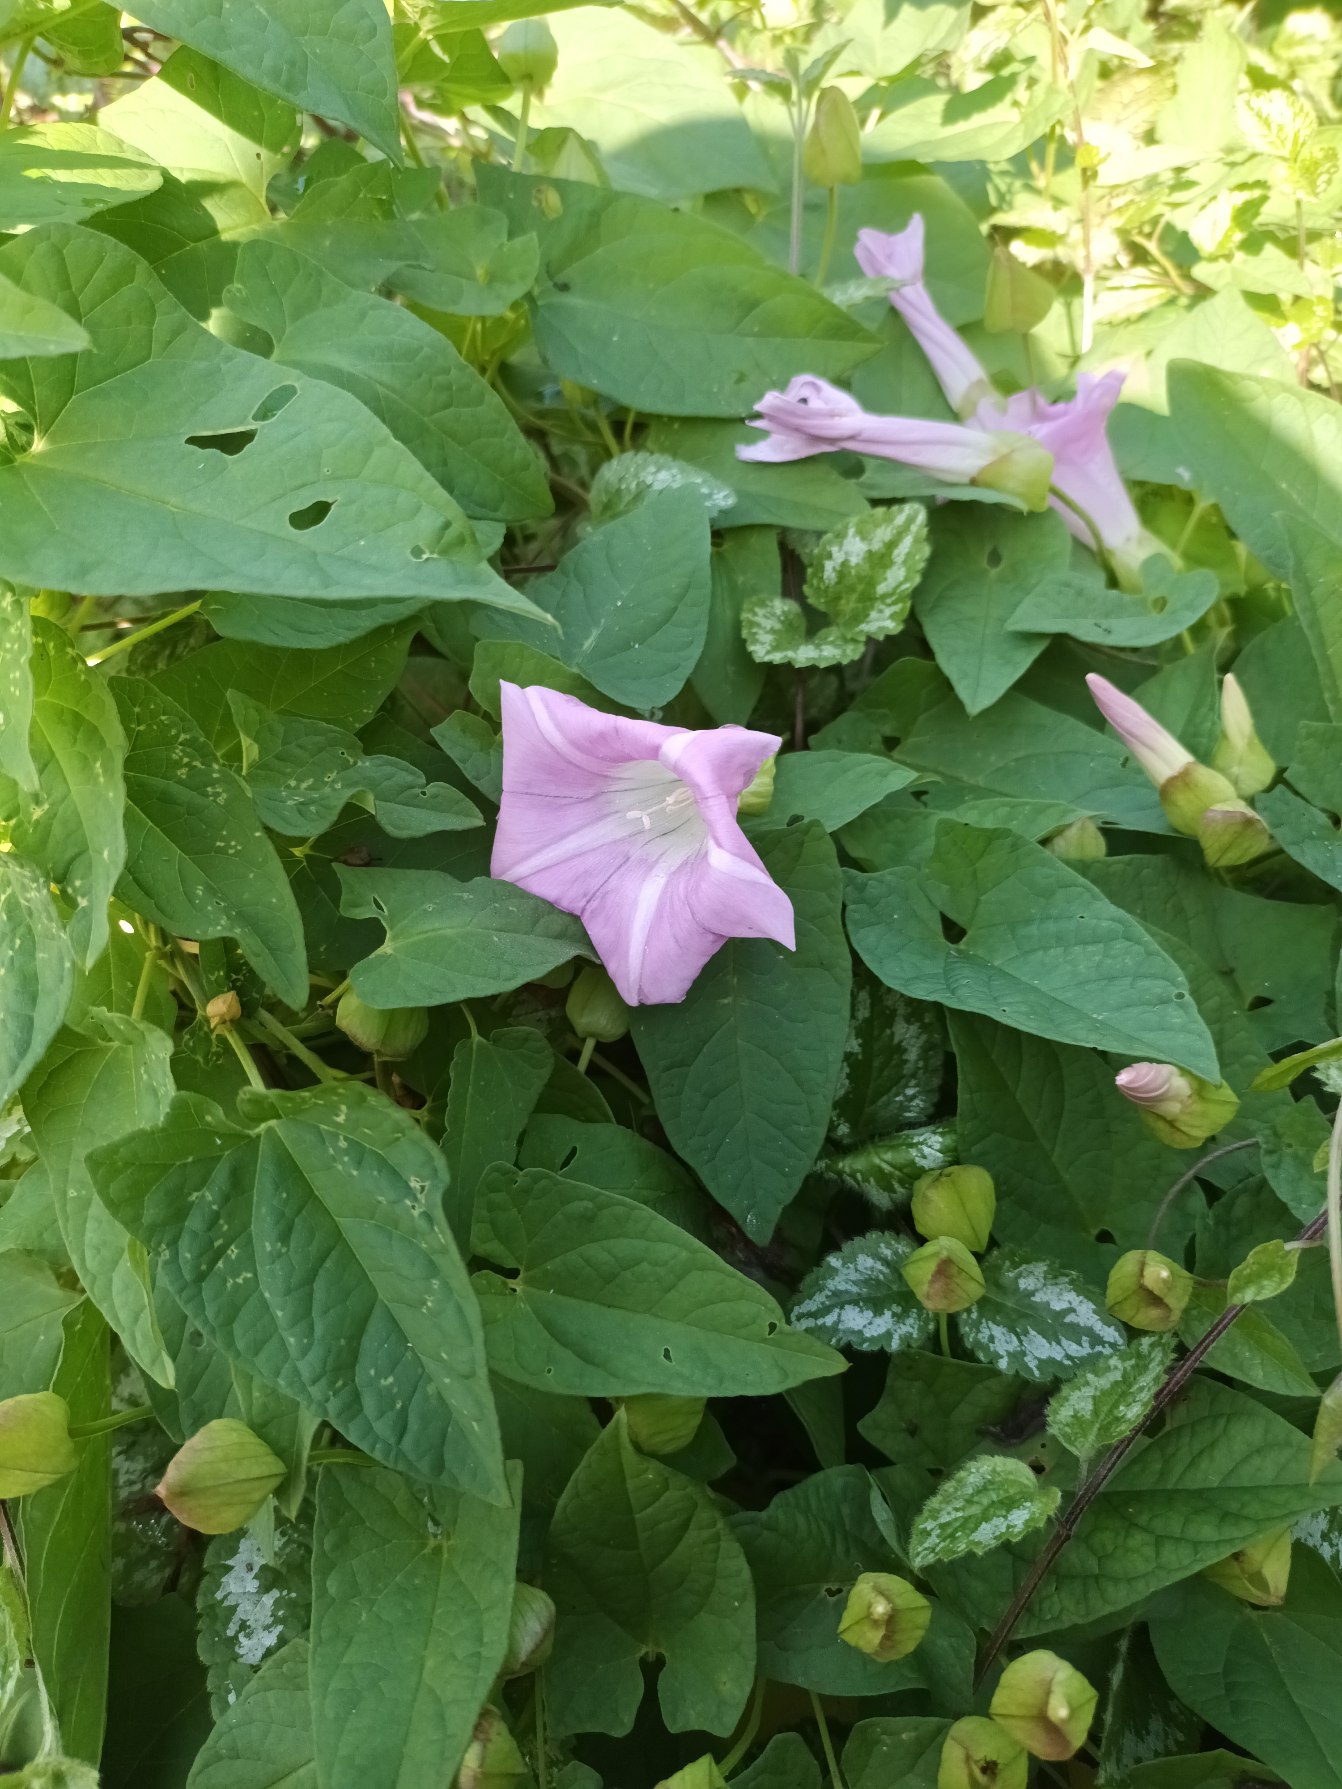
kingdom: Plantae
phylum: Tracheophyta
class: Magnoliopsida
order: Solanales
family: Convolvulaceae
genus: Calystegia
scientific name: Calystegia pulchra
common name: Have-snerle
